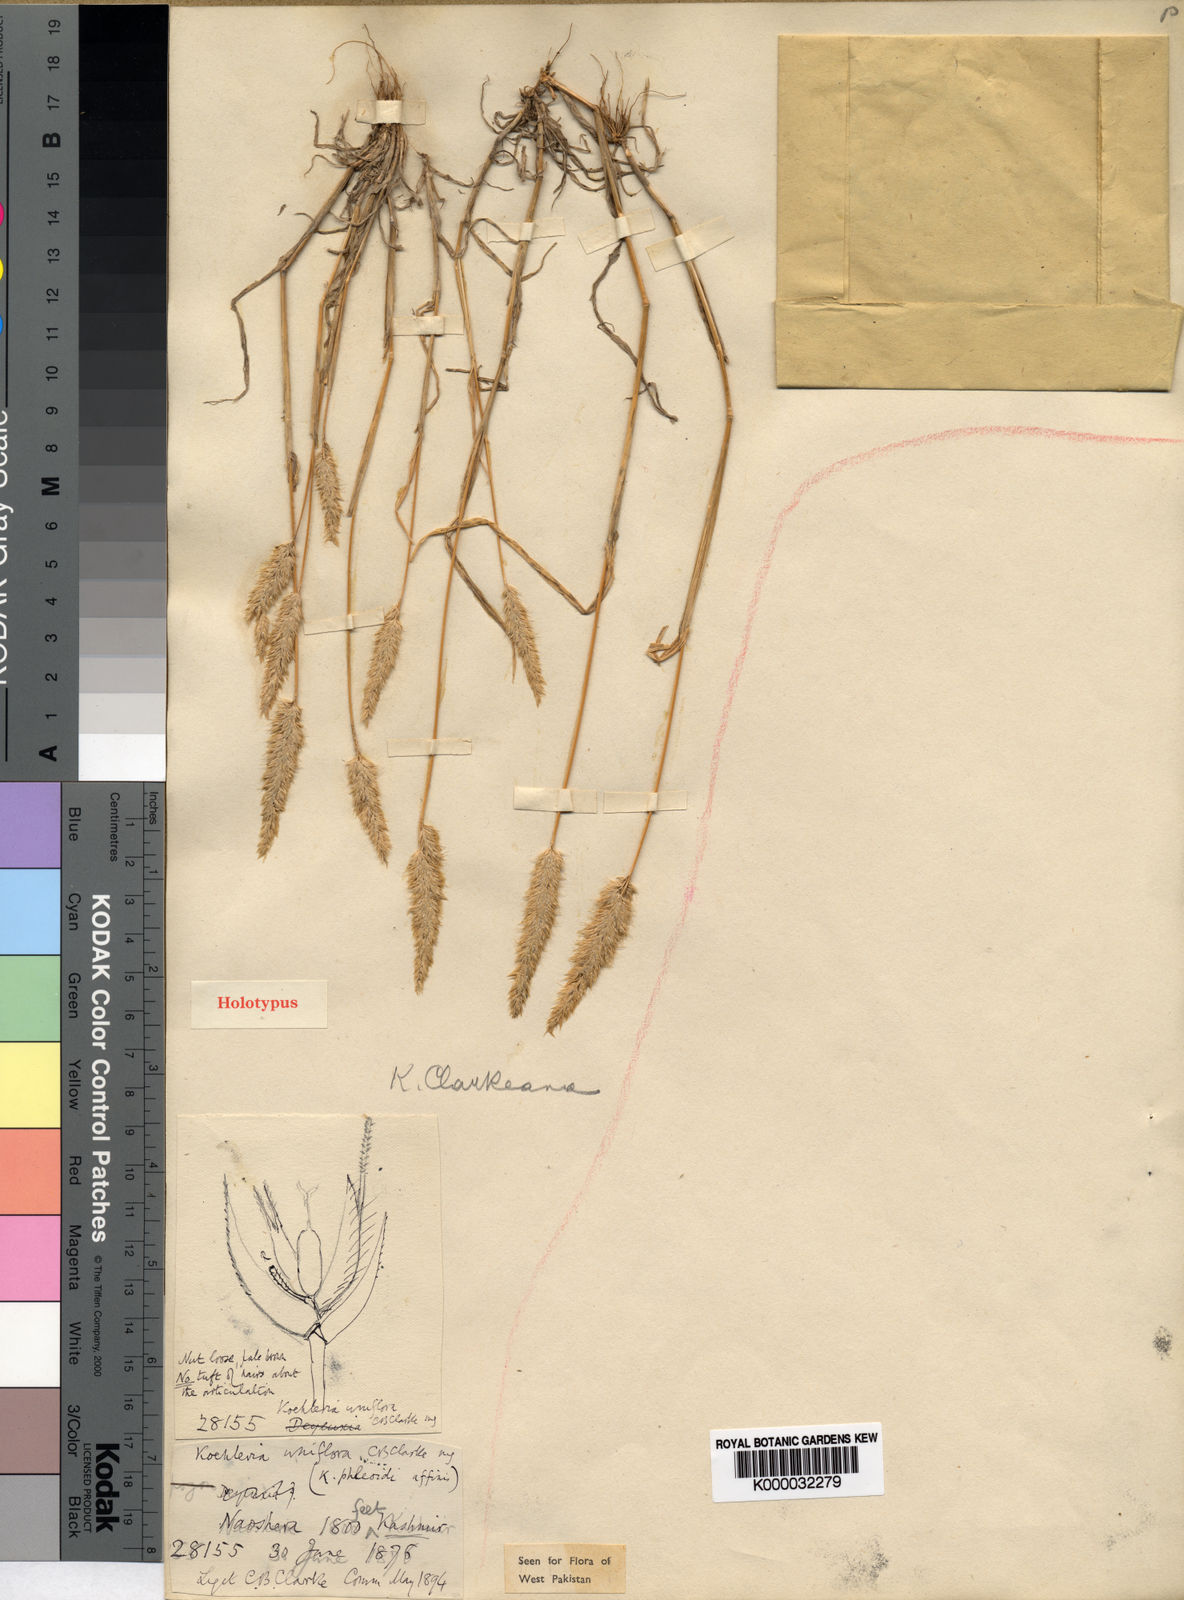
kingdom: Plantae
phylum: Tracheophyta
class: Liliopsida
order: Poales
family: Poaceae
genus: Rostraria
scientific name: Rostraria clarkeana
